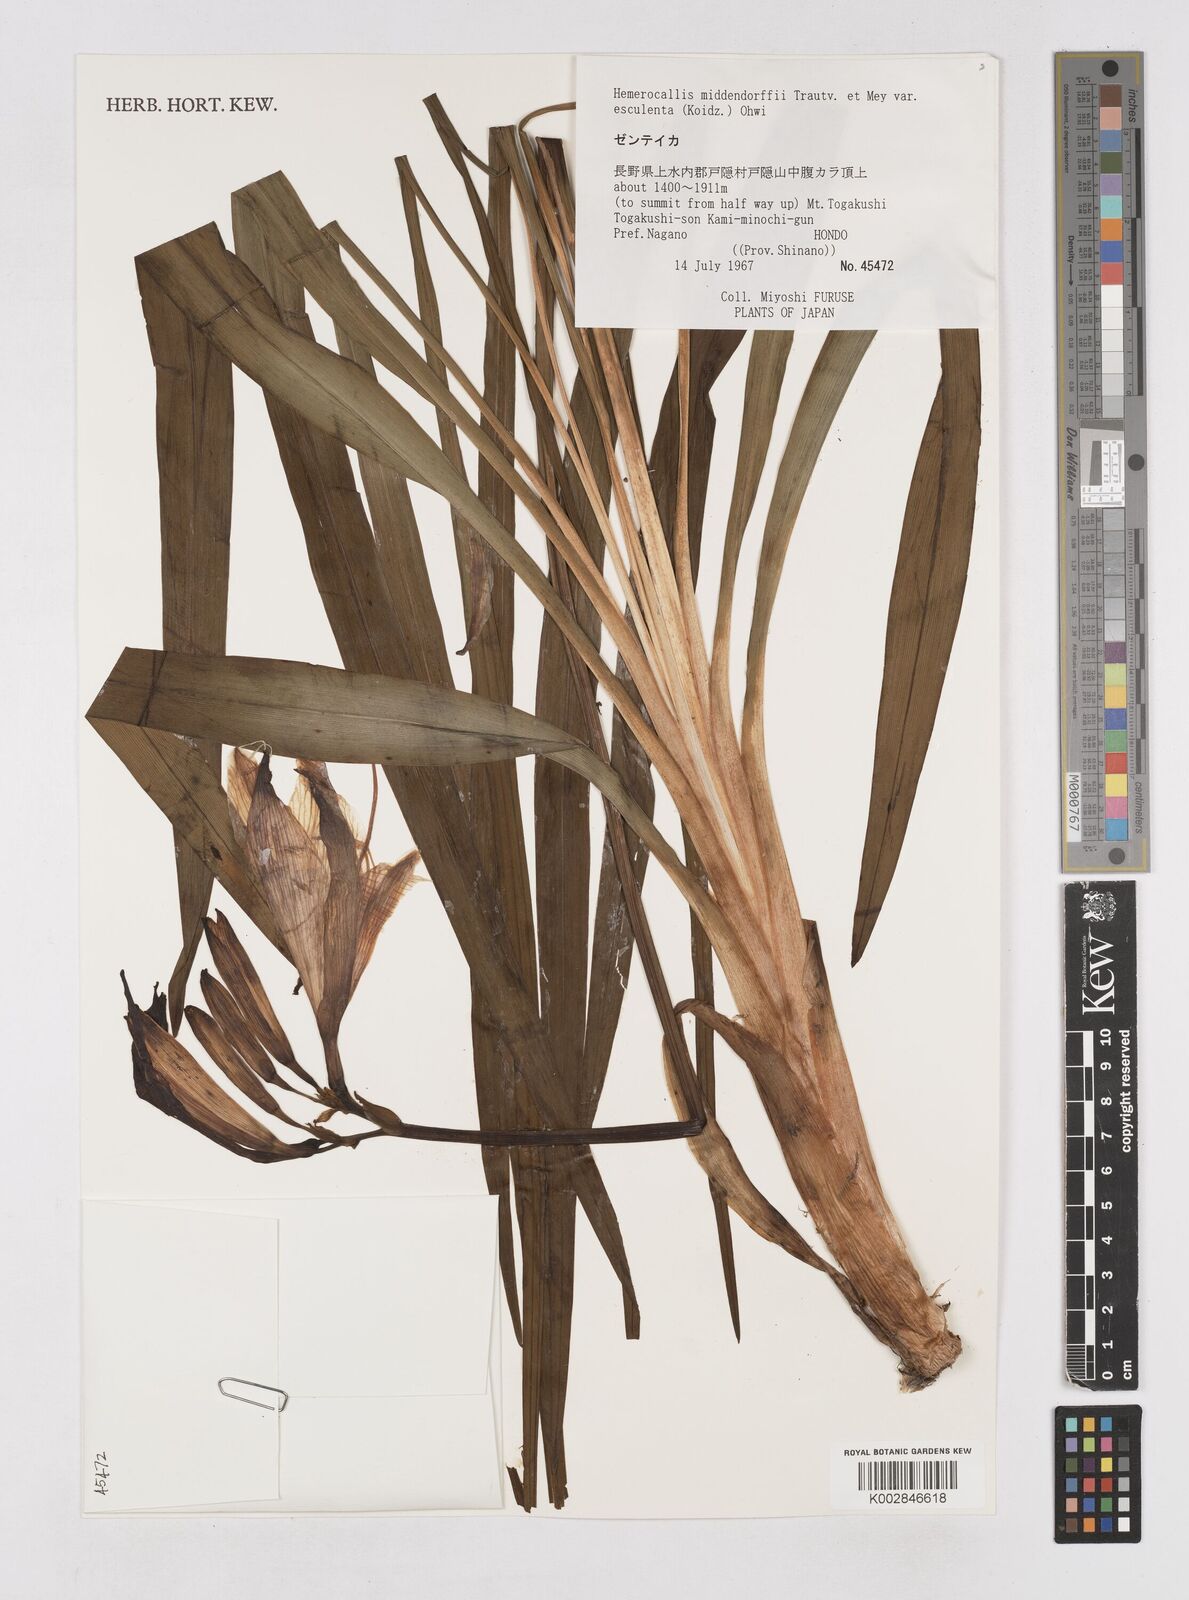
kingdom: Plantae
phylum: Tracheophyta
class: Liliopsida
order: Asparagales
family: Asphodelaceae
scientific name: Asphodelaceae
